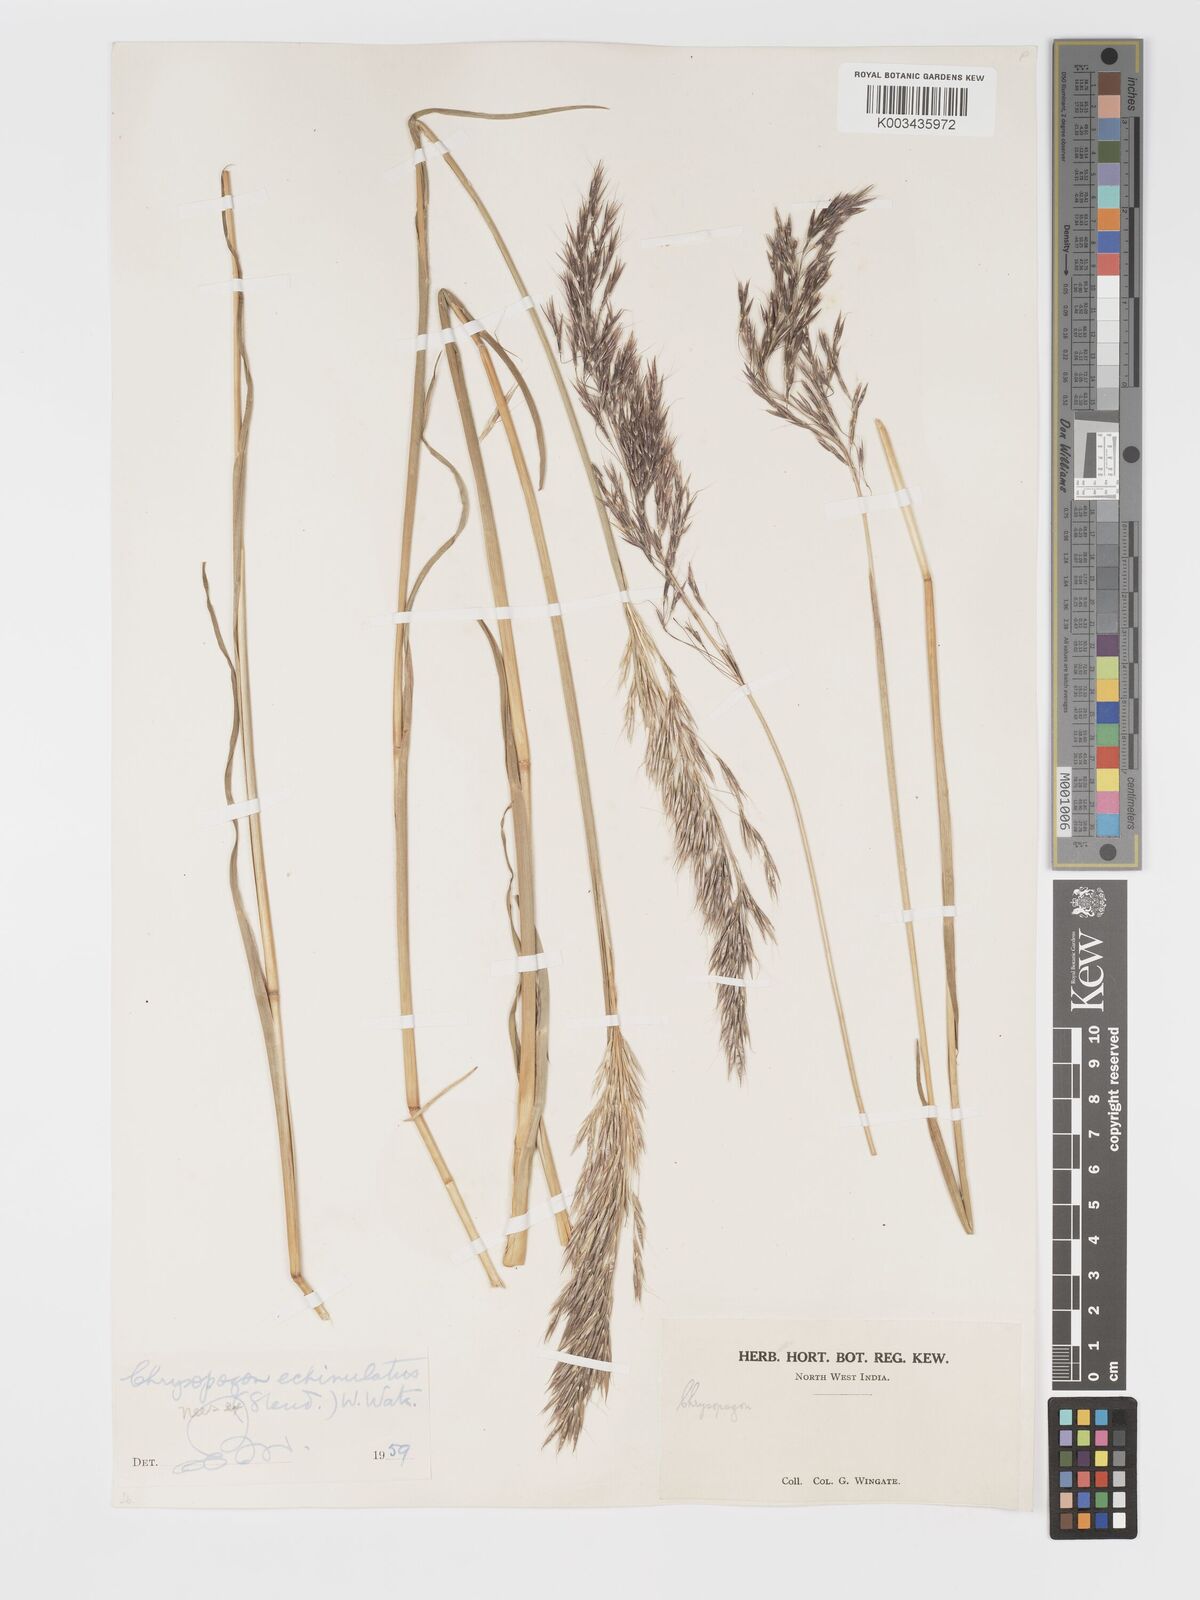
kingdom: Plantae
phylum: Tracheophyta
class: Liliopsida
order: Poales
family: Poaceae
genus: Chrysopogon
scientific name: Chrysopogon gryllus
